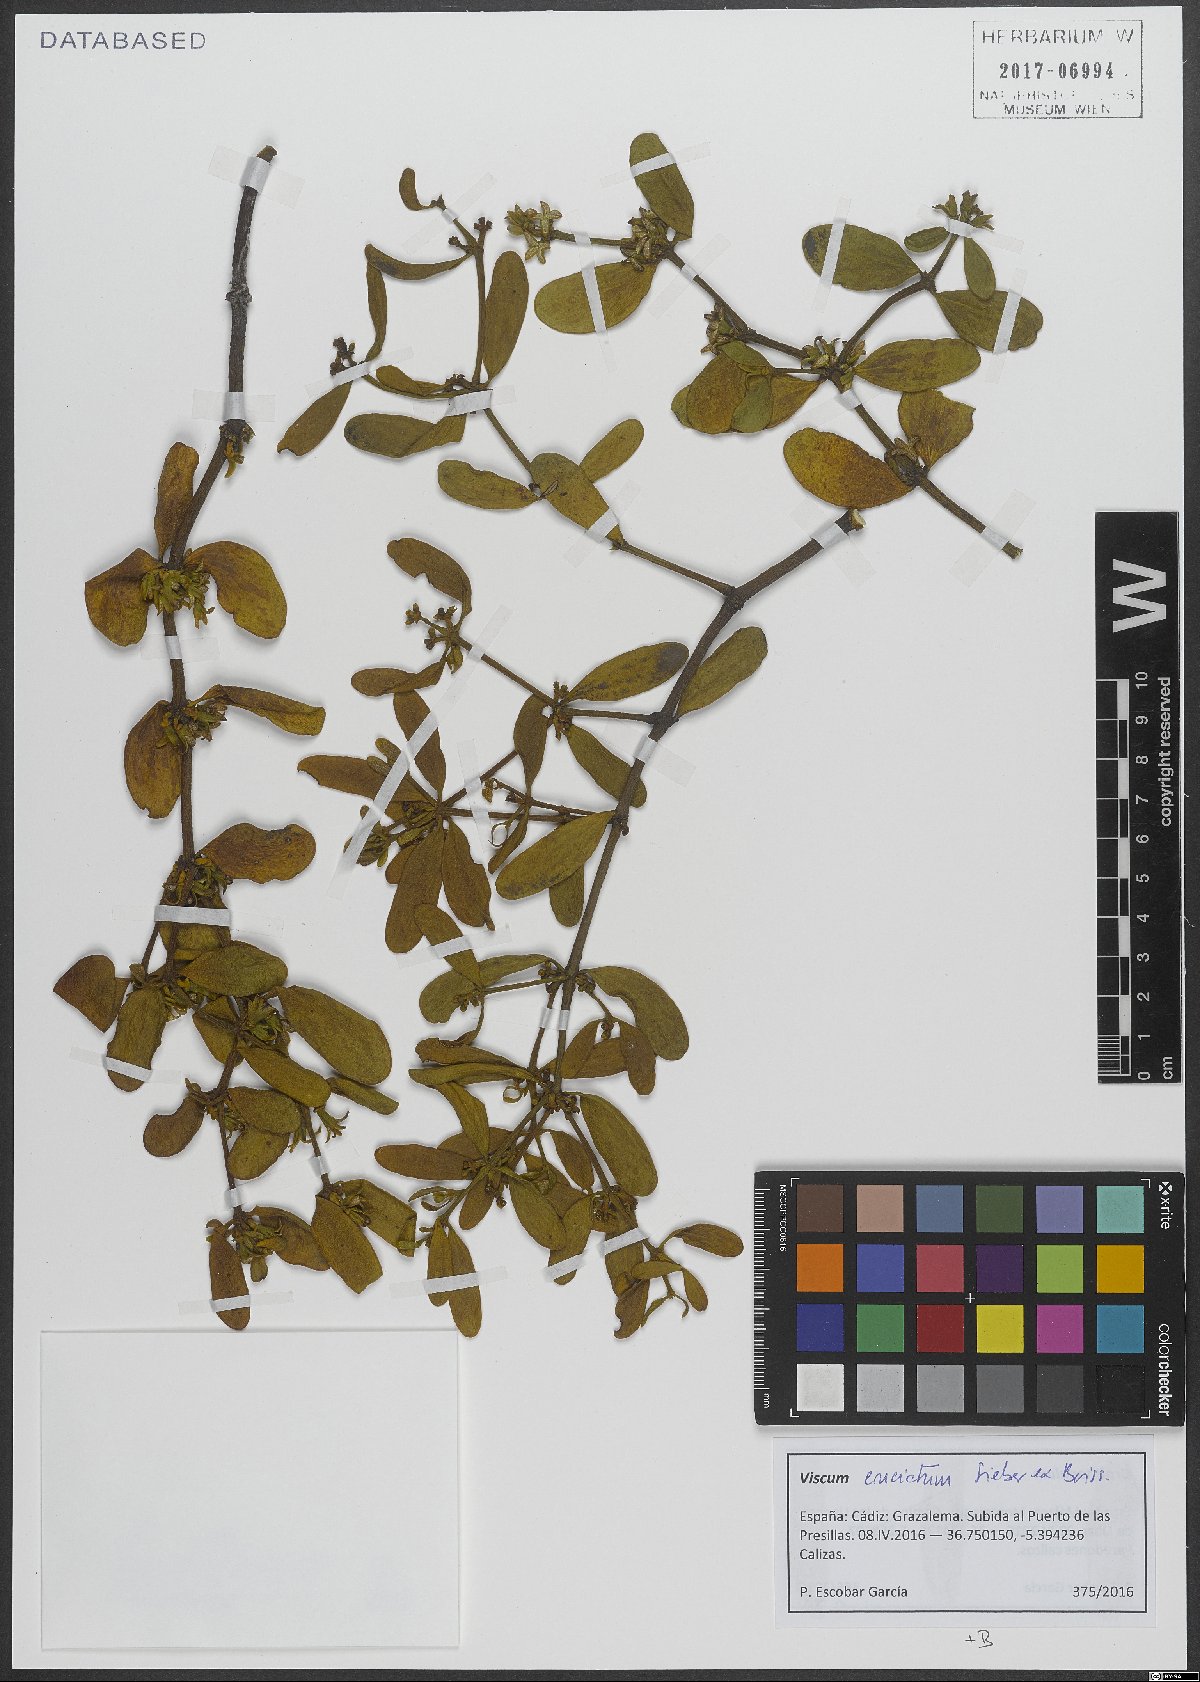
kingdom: Plantae
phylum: Tracheophyta
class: Magnoliopsida
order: Santalales
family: Viscaceae
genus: Viscum
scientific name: Viscum cruciatum
